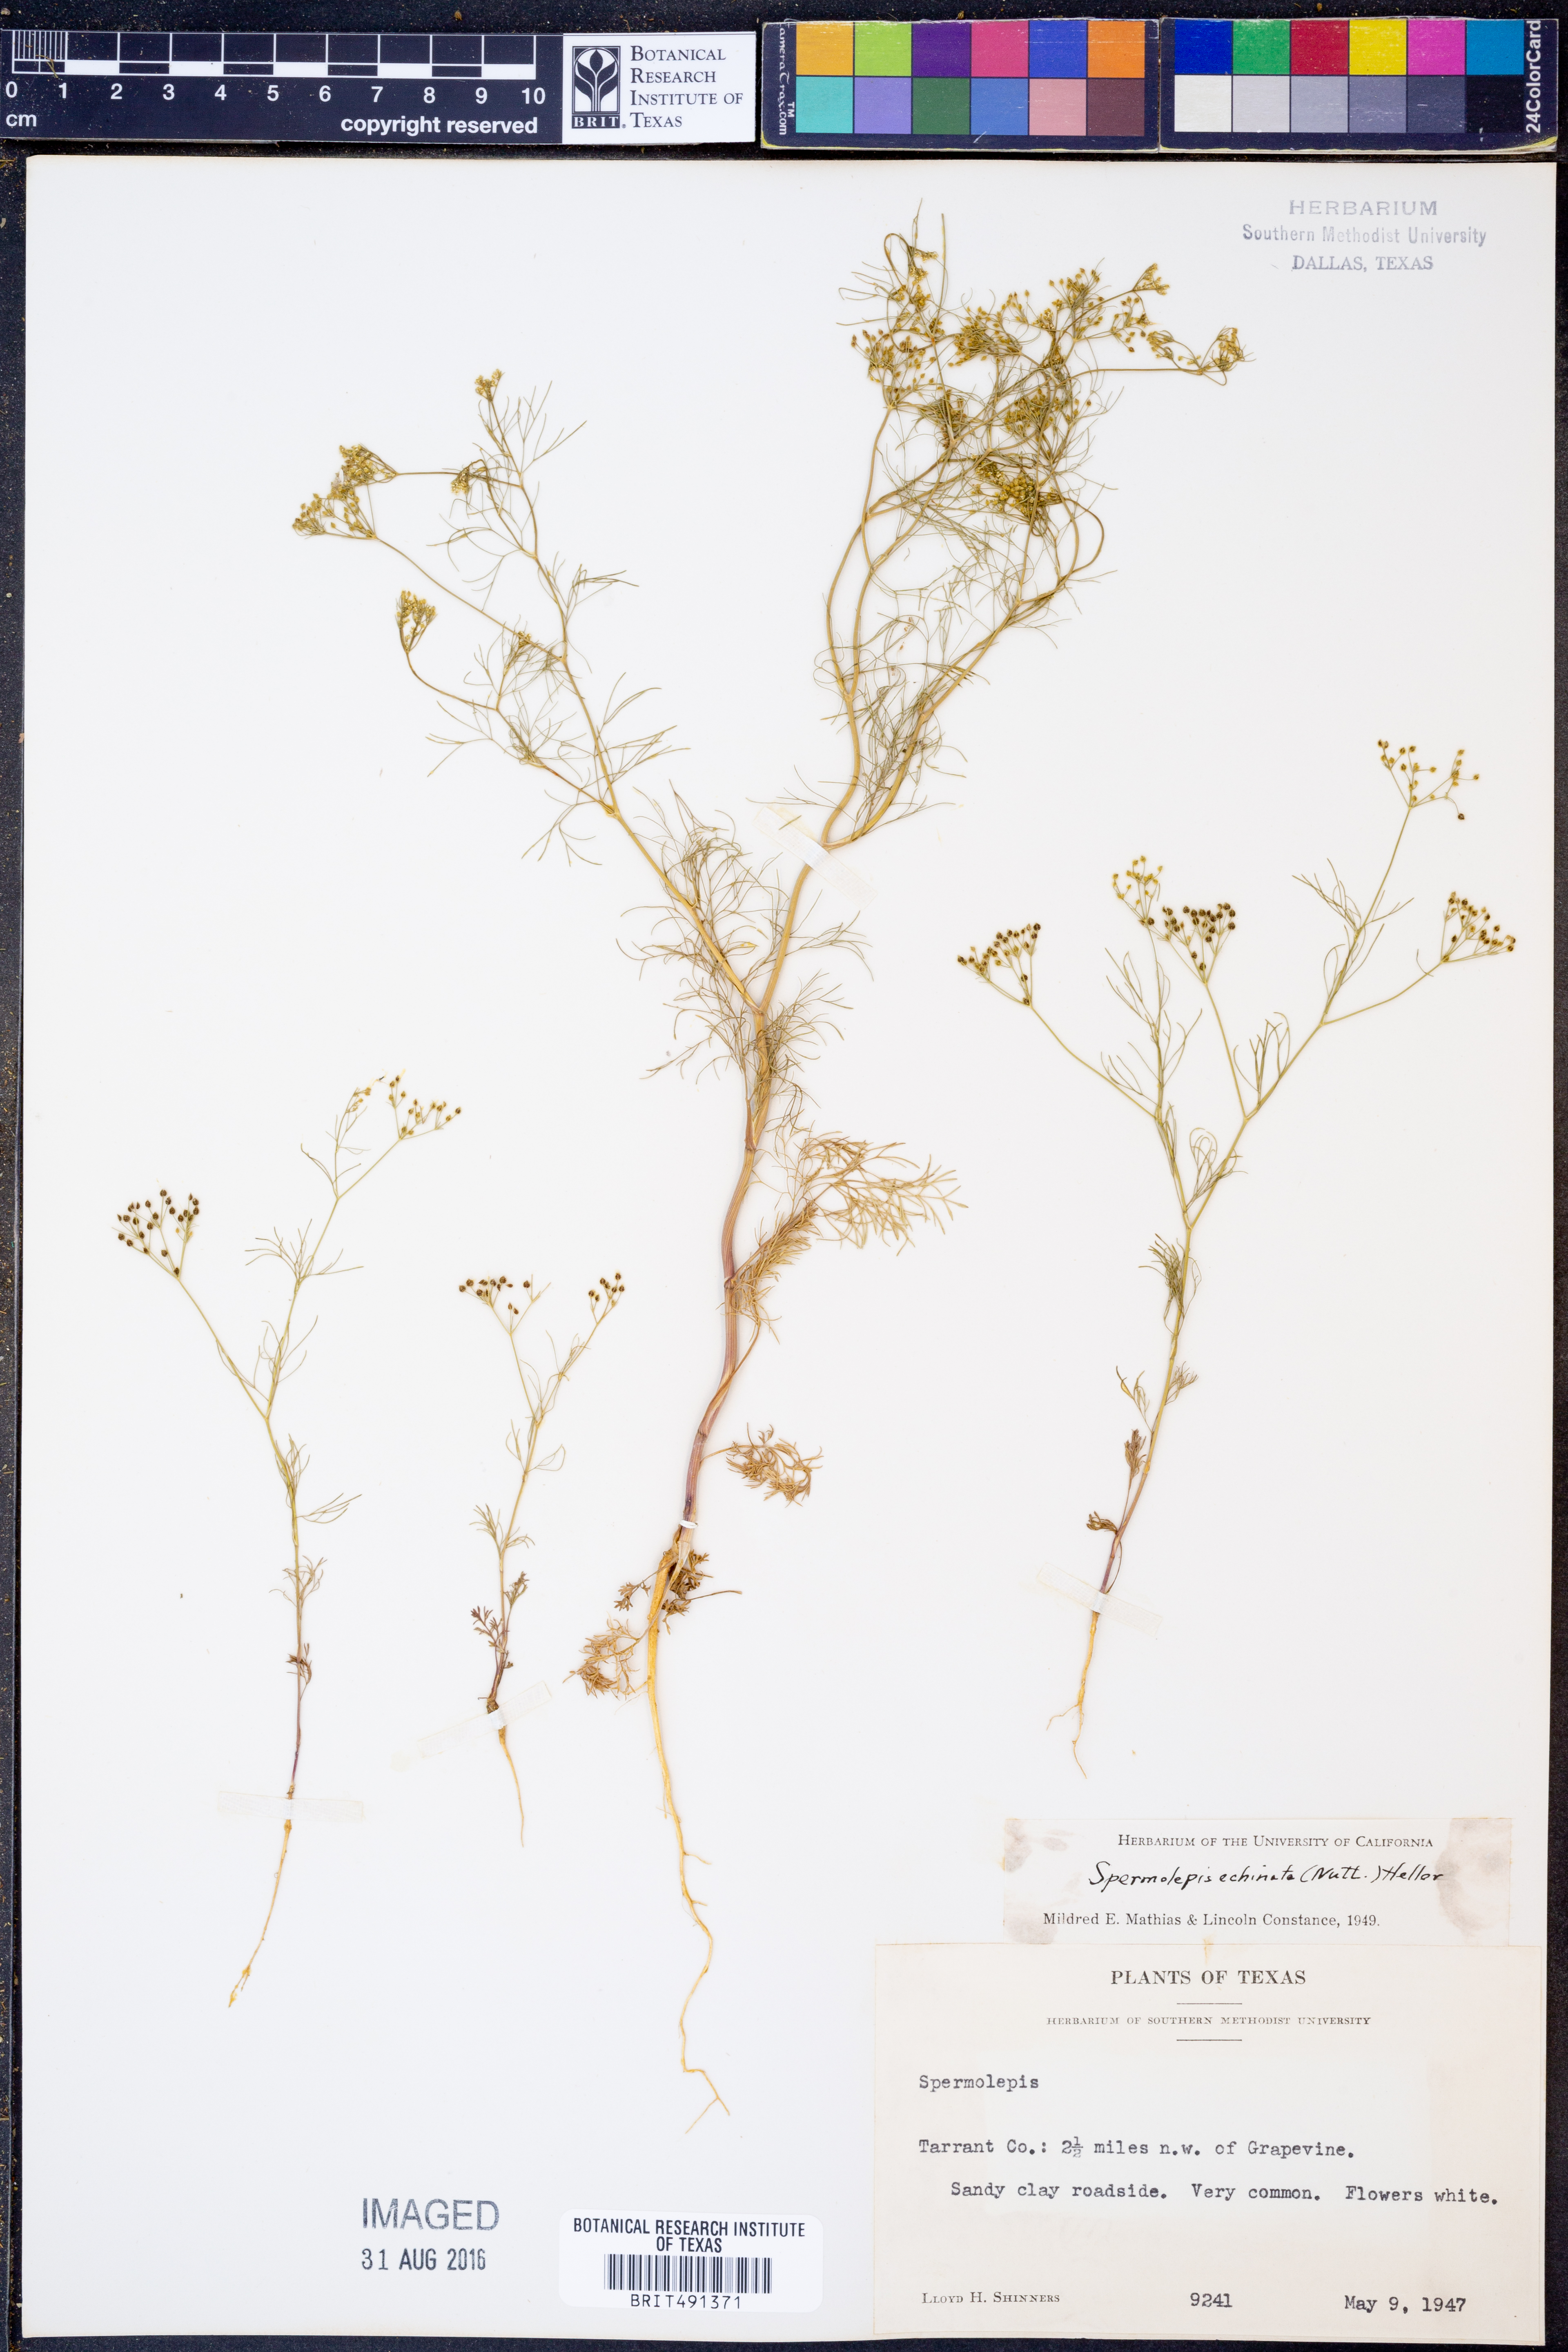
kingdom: Plantae
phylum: Tracheophyta
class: Magnoliopsida
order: Apiales
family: Apiaceae
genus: Spermolepis
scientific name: Spermolepis echinata
